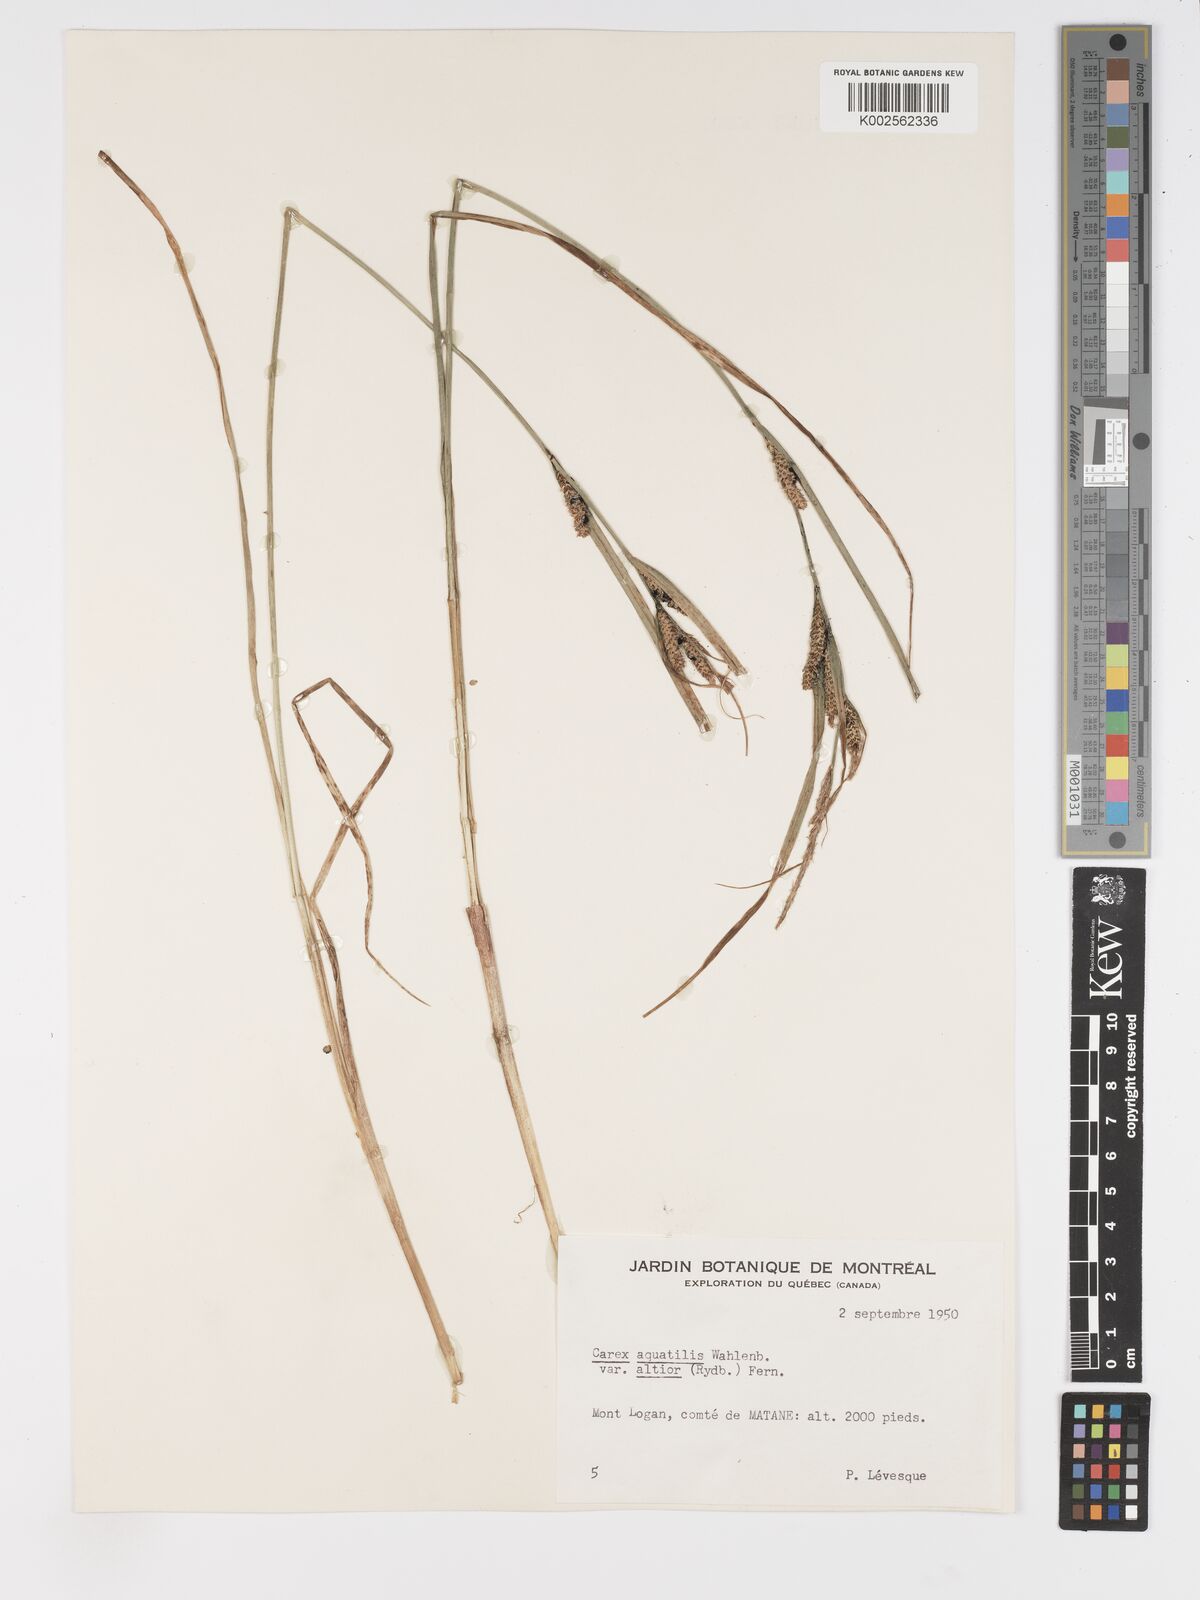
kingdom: Plantae
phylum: Tracheophyta
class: Liliopsida
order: Poales
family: Cyperaceae
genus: Carex
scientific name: Carex aquatilis
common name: Water sedge
